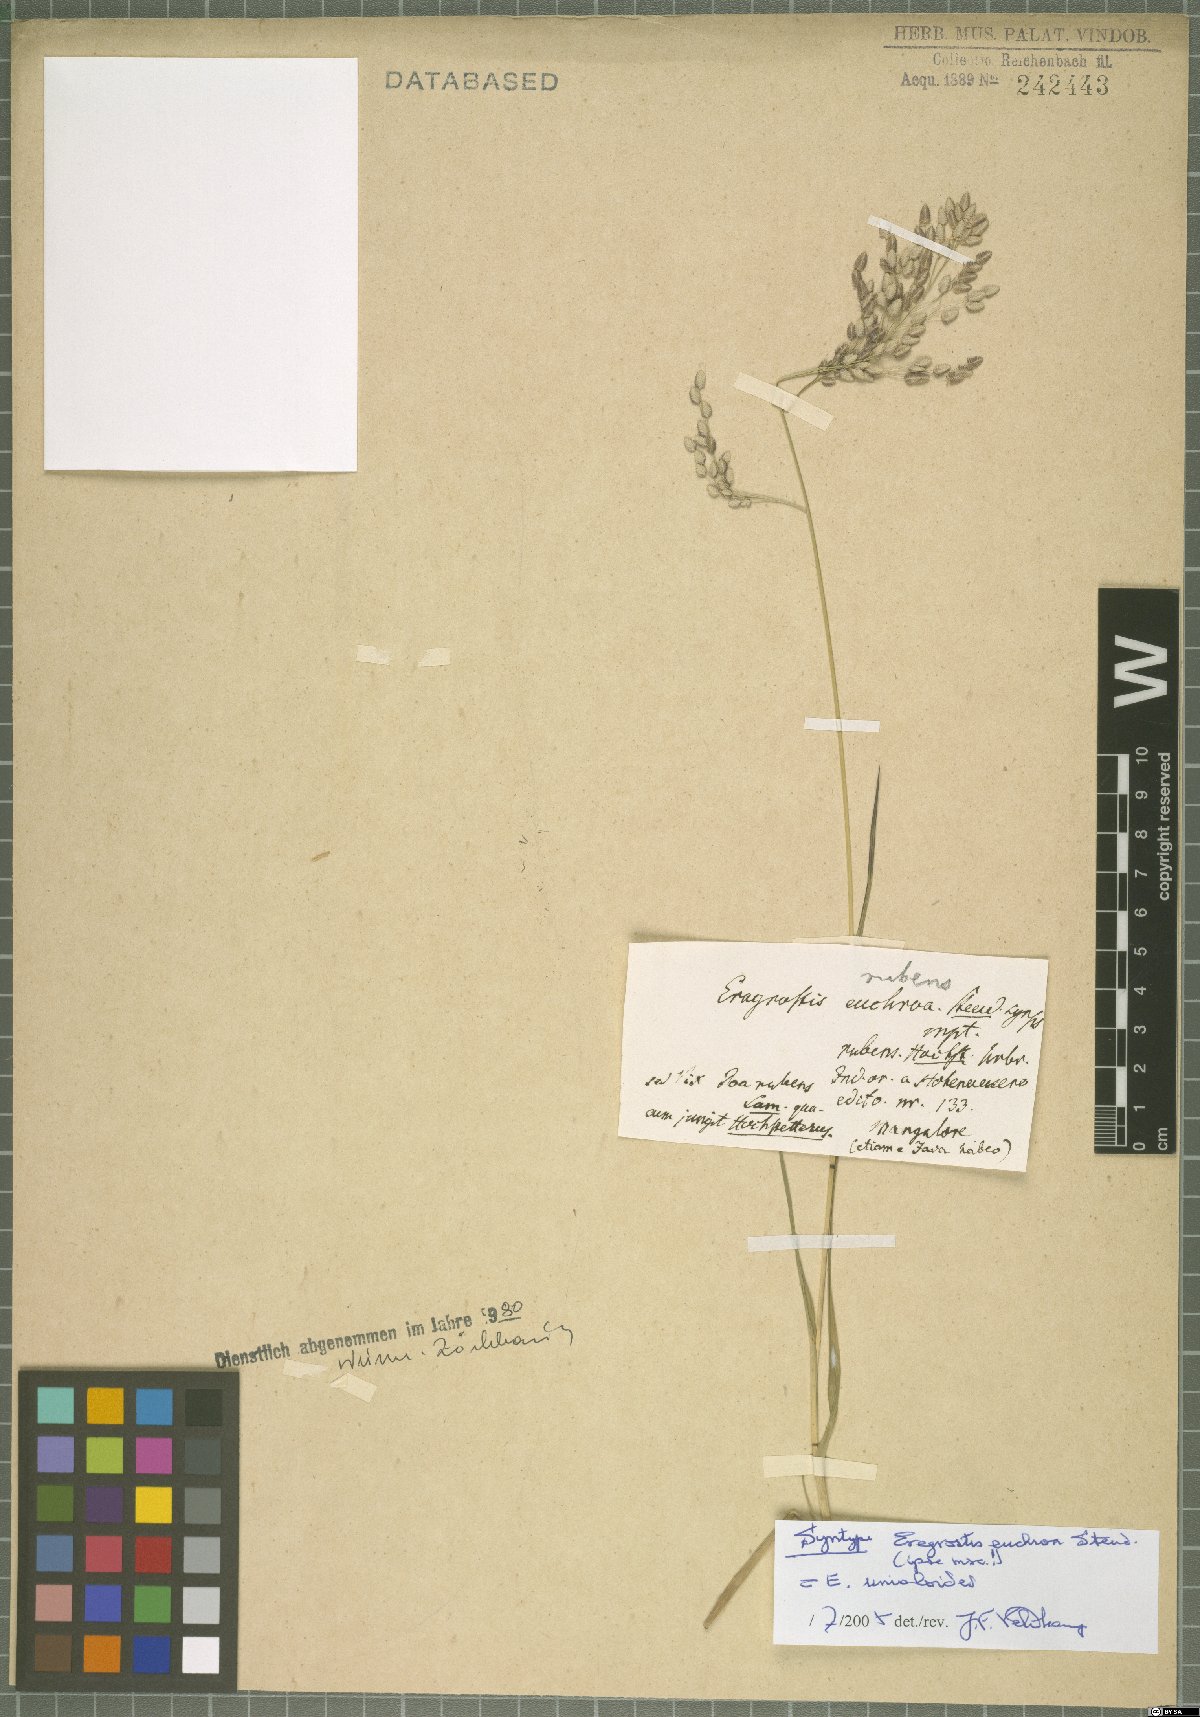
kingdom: Plantae
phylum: Tracheophyta
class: Liliopsida
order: Poales
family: Poaceae
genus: Eragrostis
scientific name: Eragrostis unioloides
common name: Chinese lovegrass
